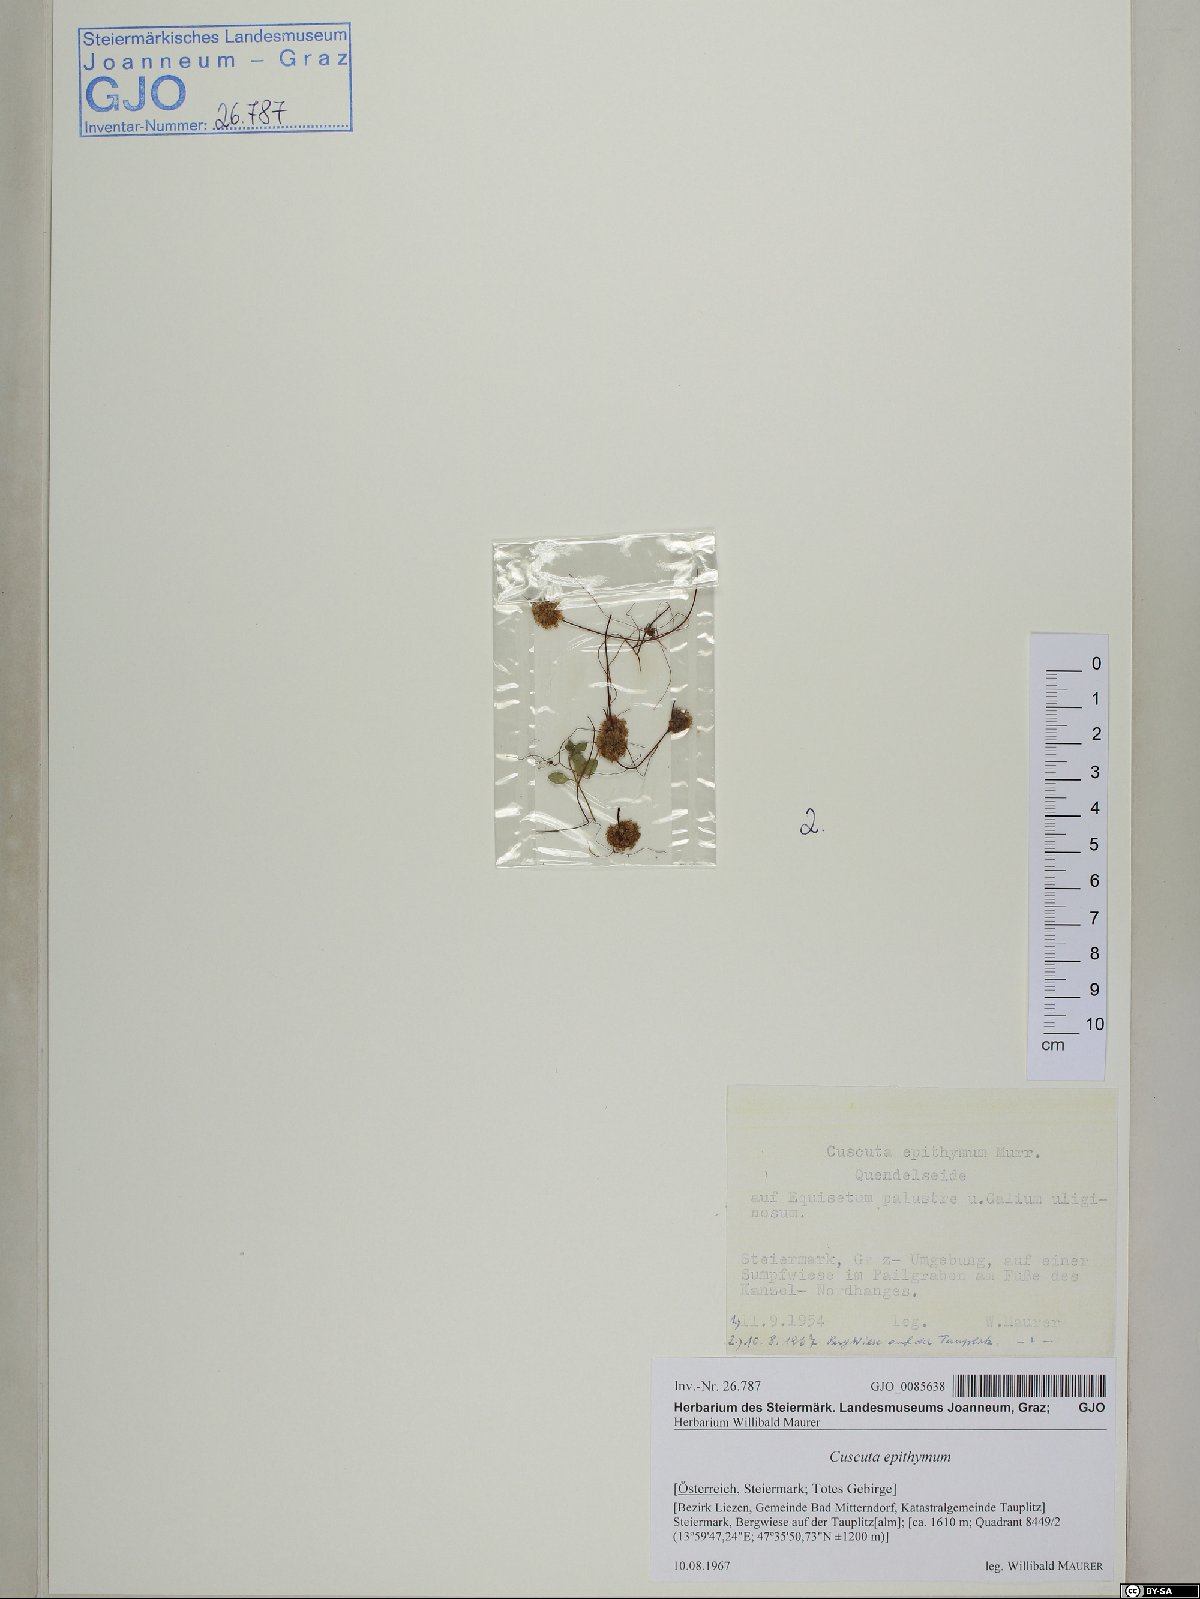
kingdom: Plantae
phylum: Tracheophyta
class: Magnoliopsida
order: Solanales
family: Convolvulaceae
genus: Cuscuta
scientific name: Cuscuta epithymum
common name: Clover dodder
